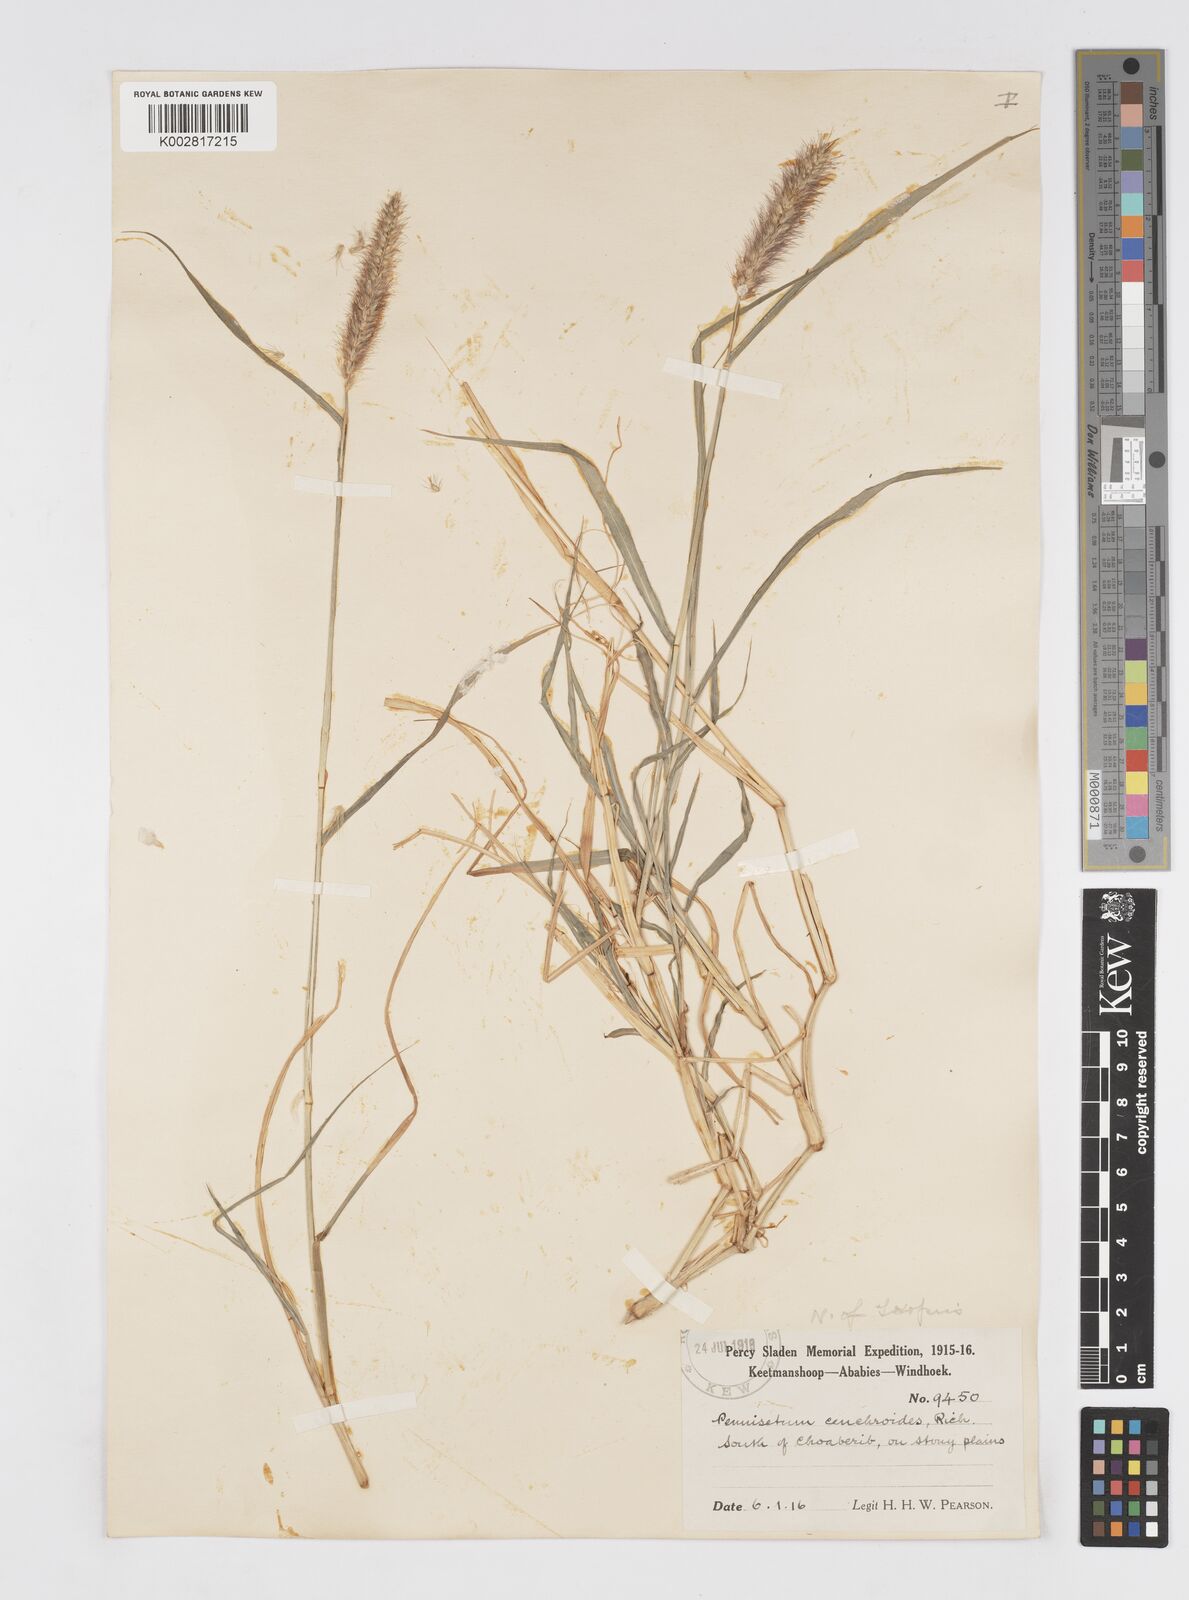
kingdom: Plantae
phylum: Tracheophyta
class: Liliopsida
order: Poales
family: Poaceae
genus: Cenchrus
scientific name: Cenchrus ciliaris
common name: Buffelgrass
